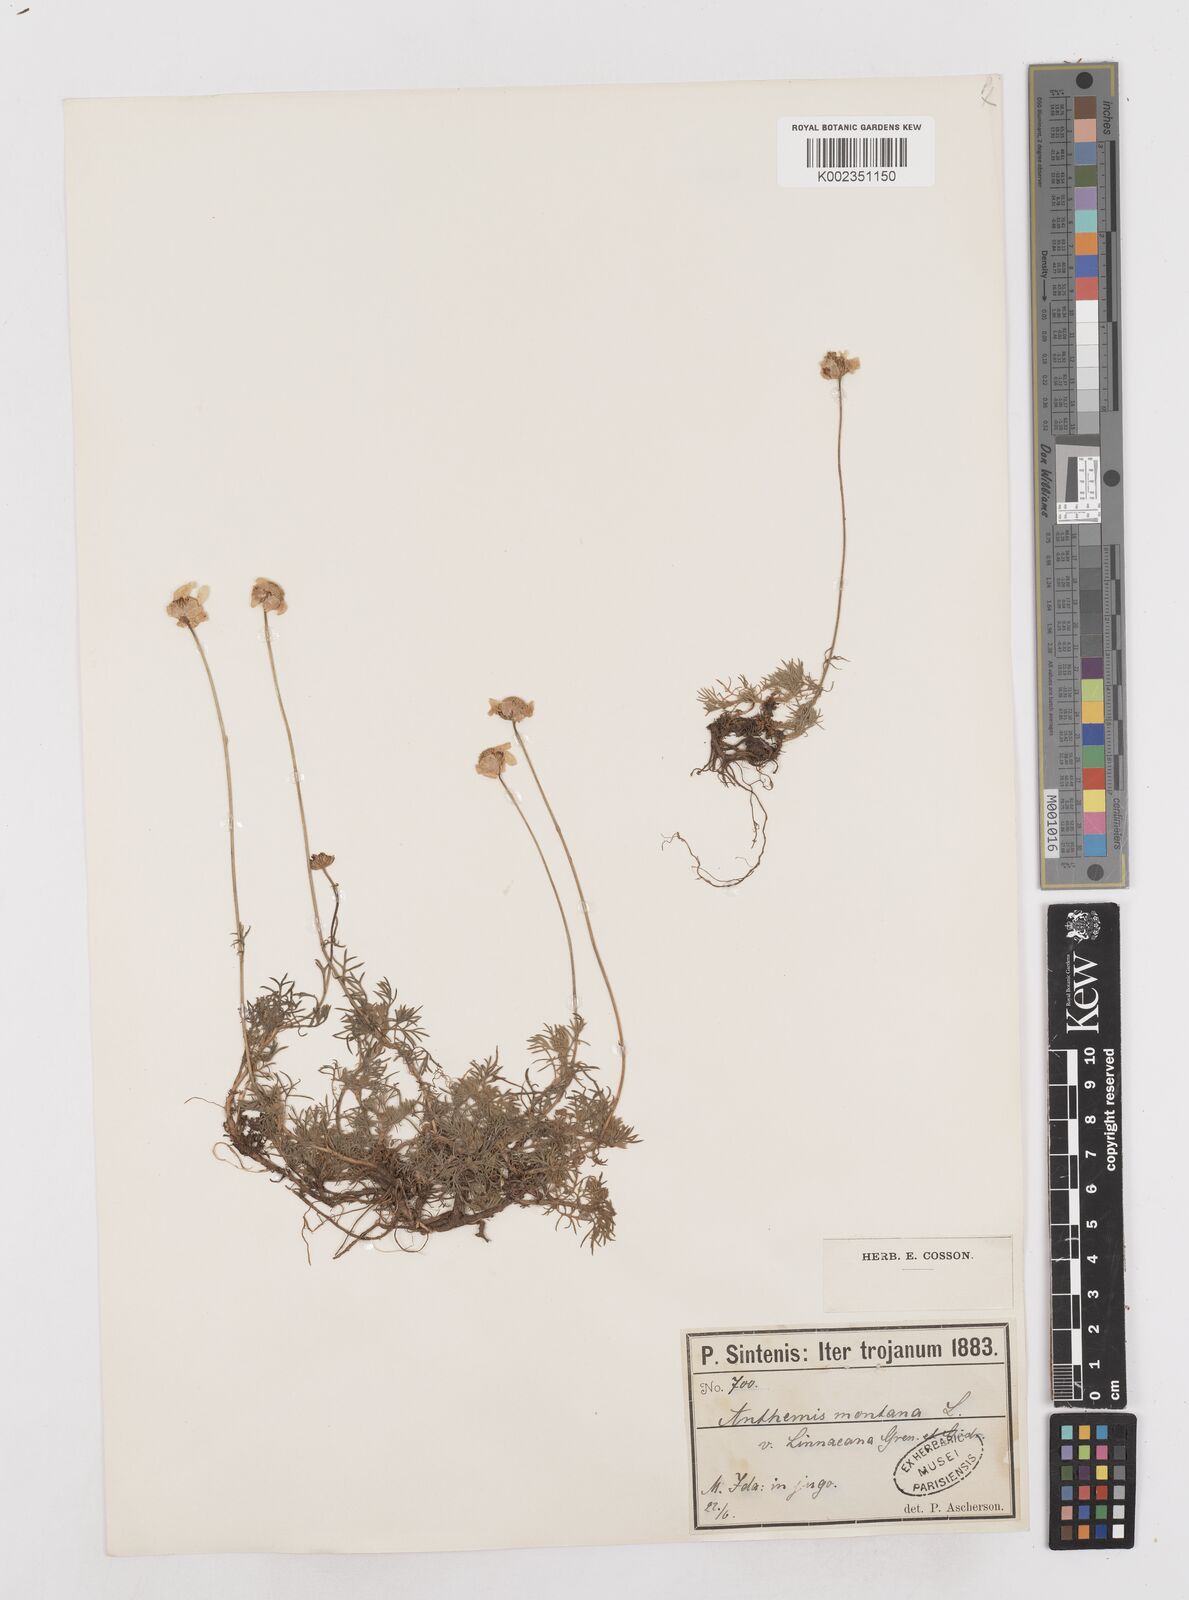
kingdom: Plantae
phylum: Tracheophyta
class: Magnoliopsida
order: Asterales
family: Asteraceae
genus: Anthemis
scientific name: Anthemis cretica
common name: Mountain dog-daisy
